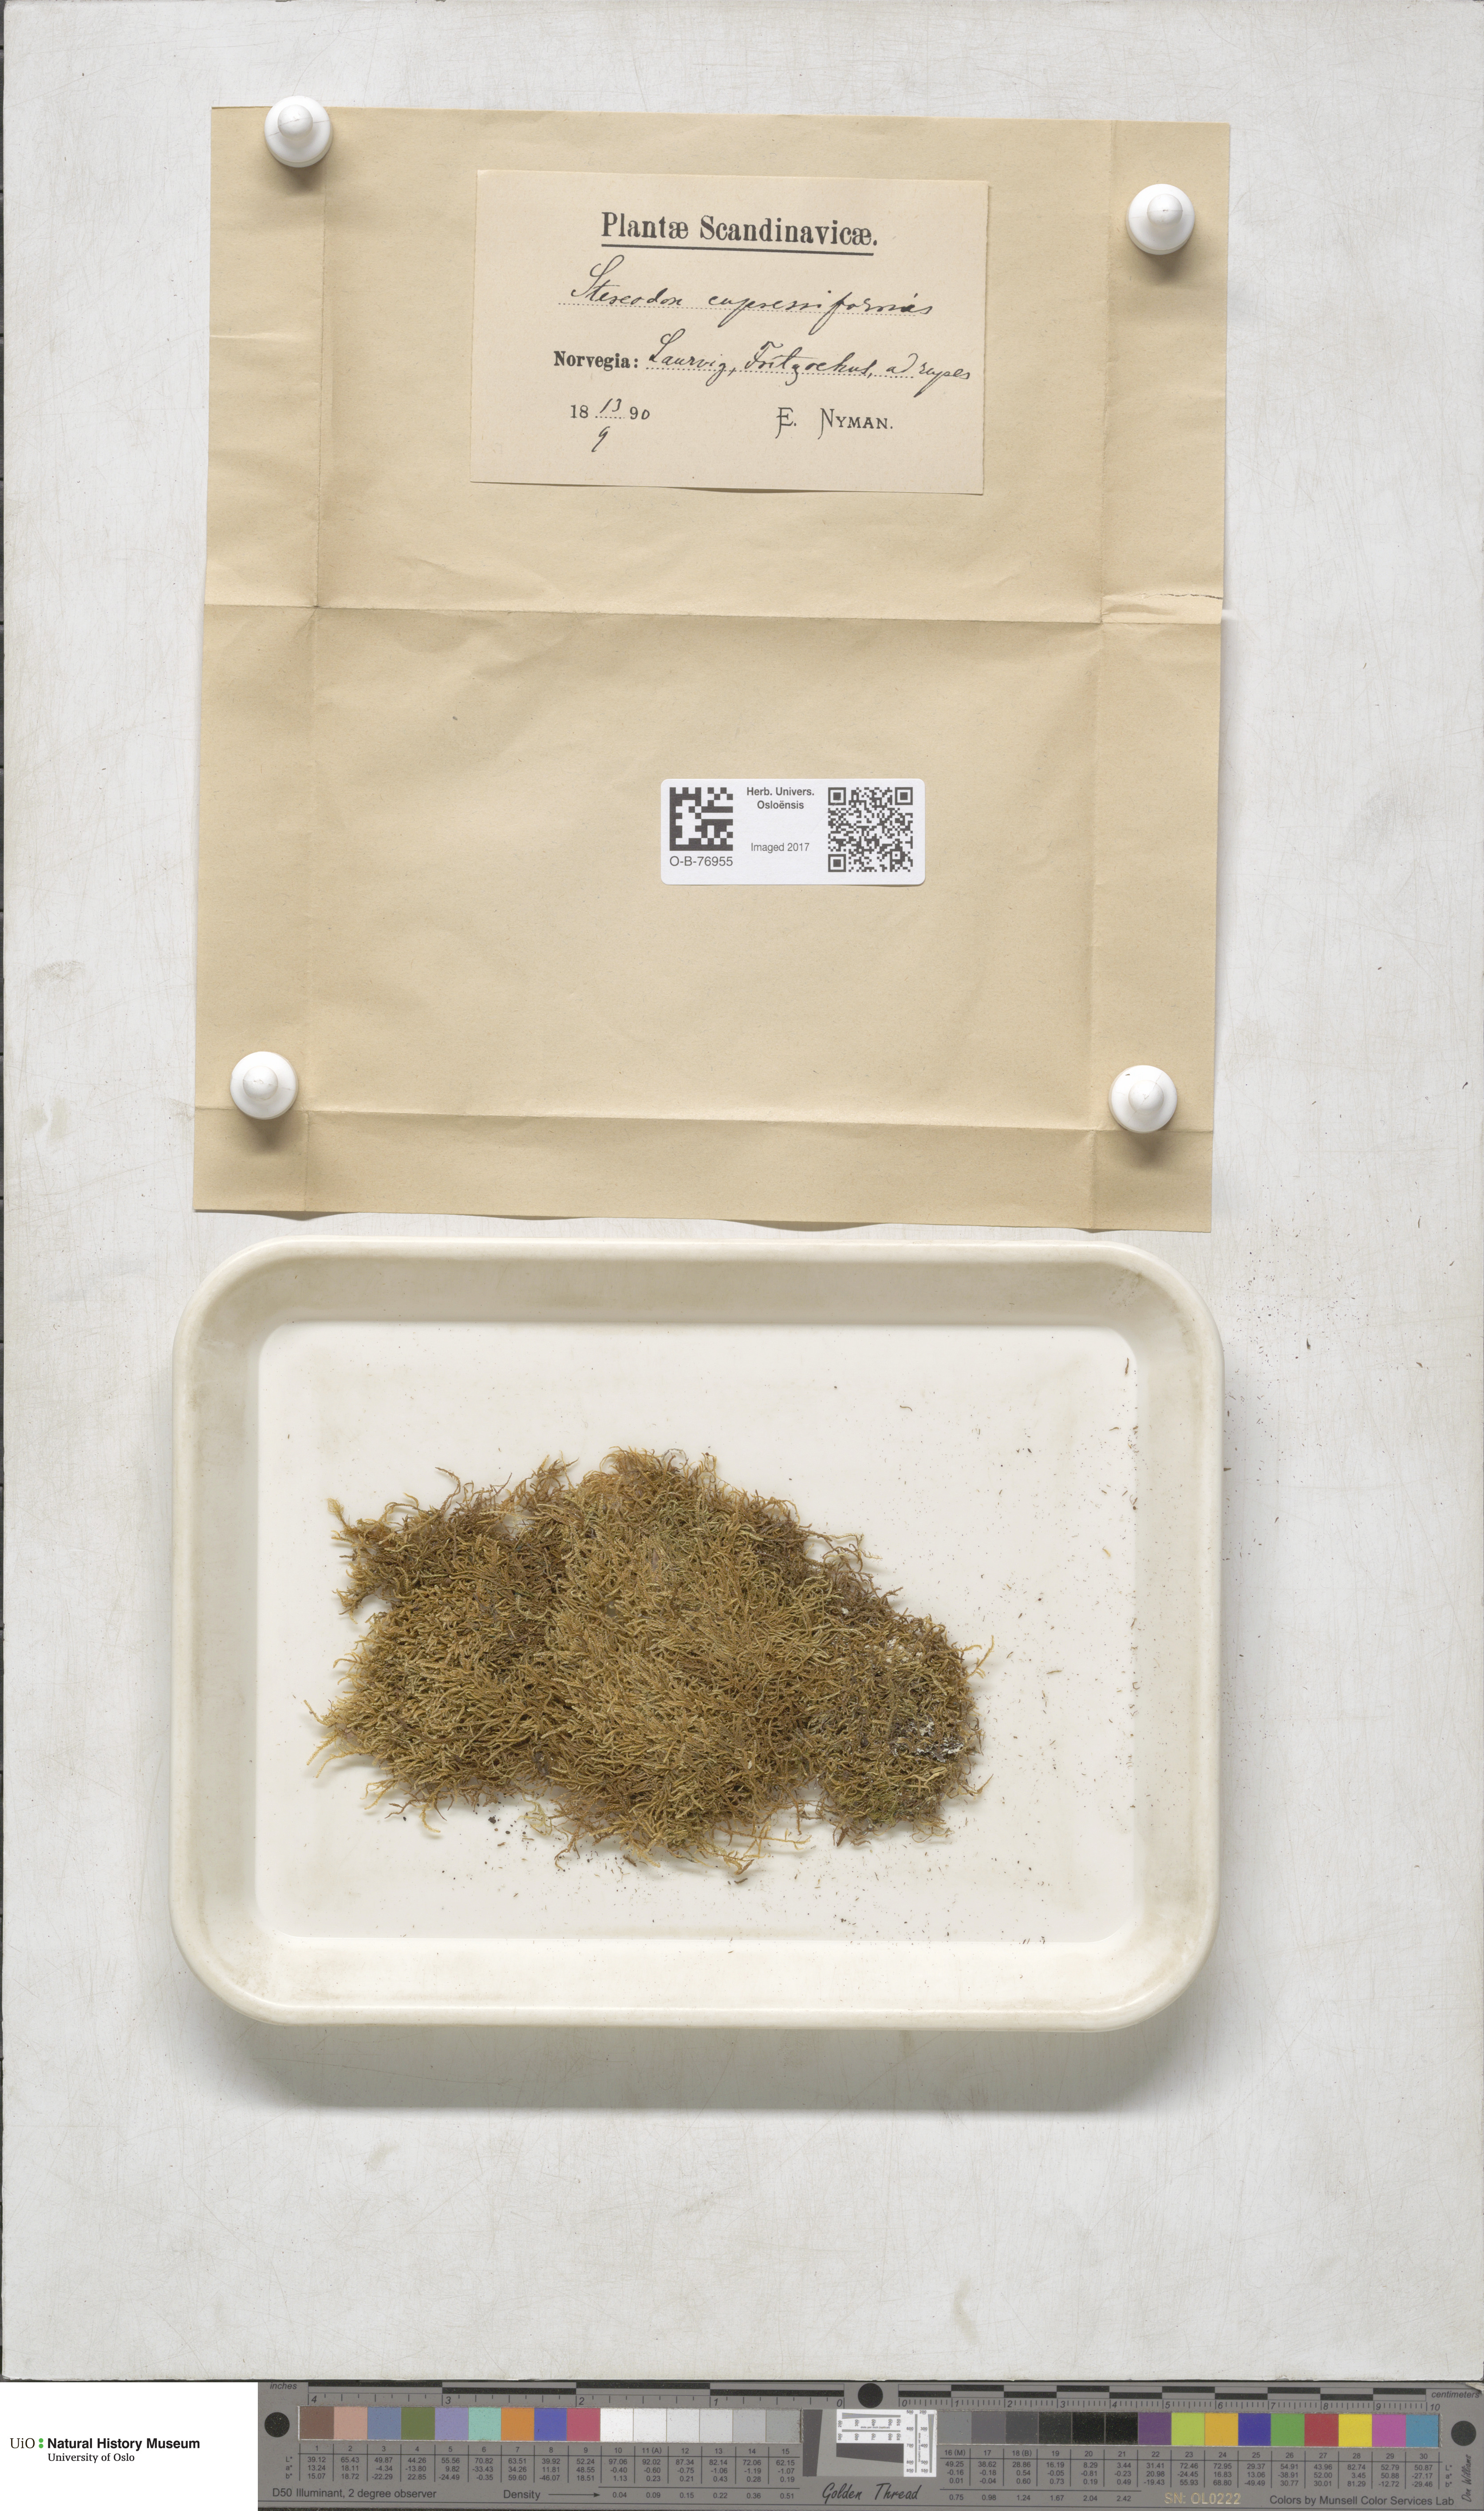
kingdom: Plantae
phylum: Bryophyta
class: Bryopsida
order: Hypnales
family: Hypnaceae
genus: Hypnum
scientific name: Hypnum cupressiforme
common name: Cypress-leaved plait-moss
